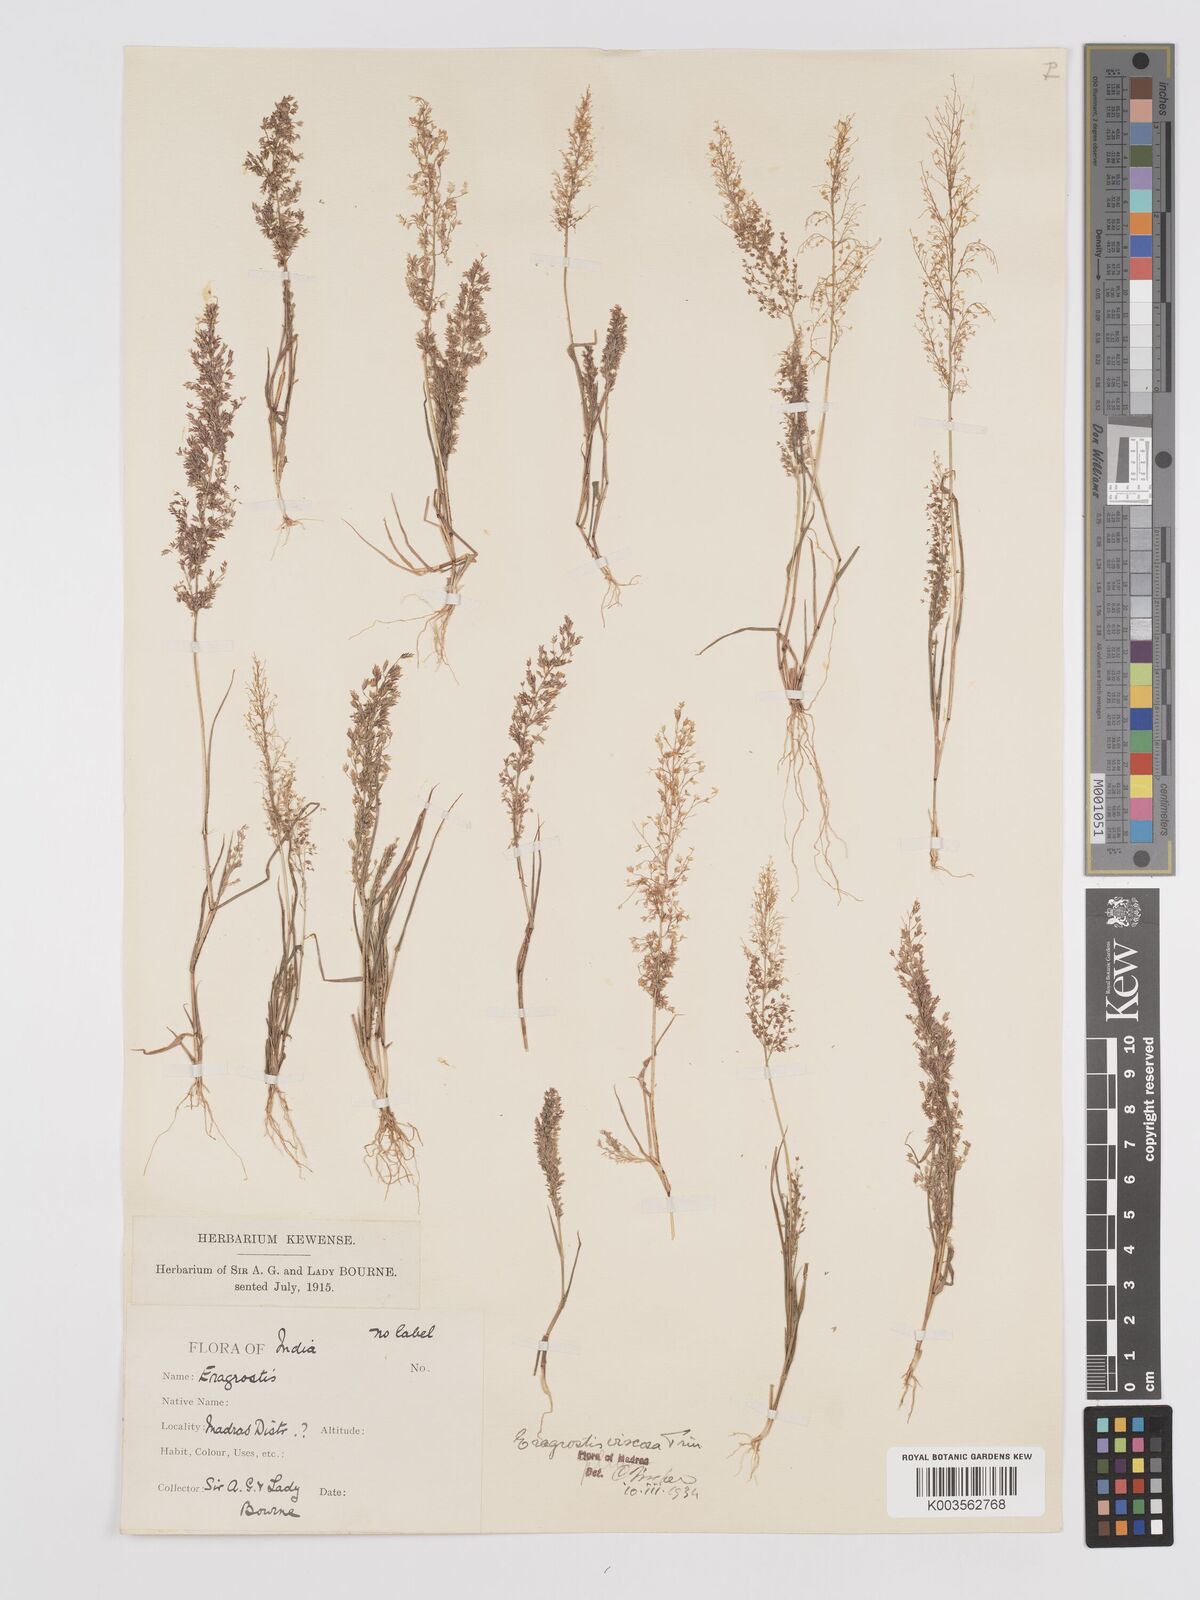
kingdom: Plantae
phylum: Tracheophyta
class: Liliopsida
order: Poales
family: Poaceae
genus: Eragrostis
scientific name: Eragrostis viscosa
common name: Sticky love grass
